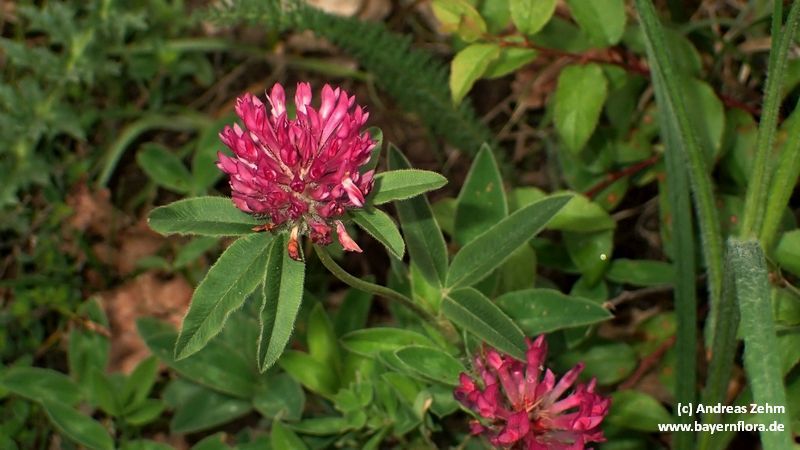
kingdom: Plantae
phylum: Tracheophyta
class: Magnoliopsida
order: Fabales
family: Fabaceae
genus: Trifolium
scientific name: Trifolium alpestre
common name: Owl-head clover
